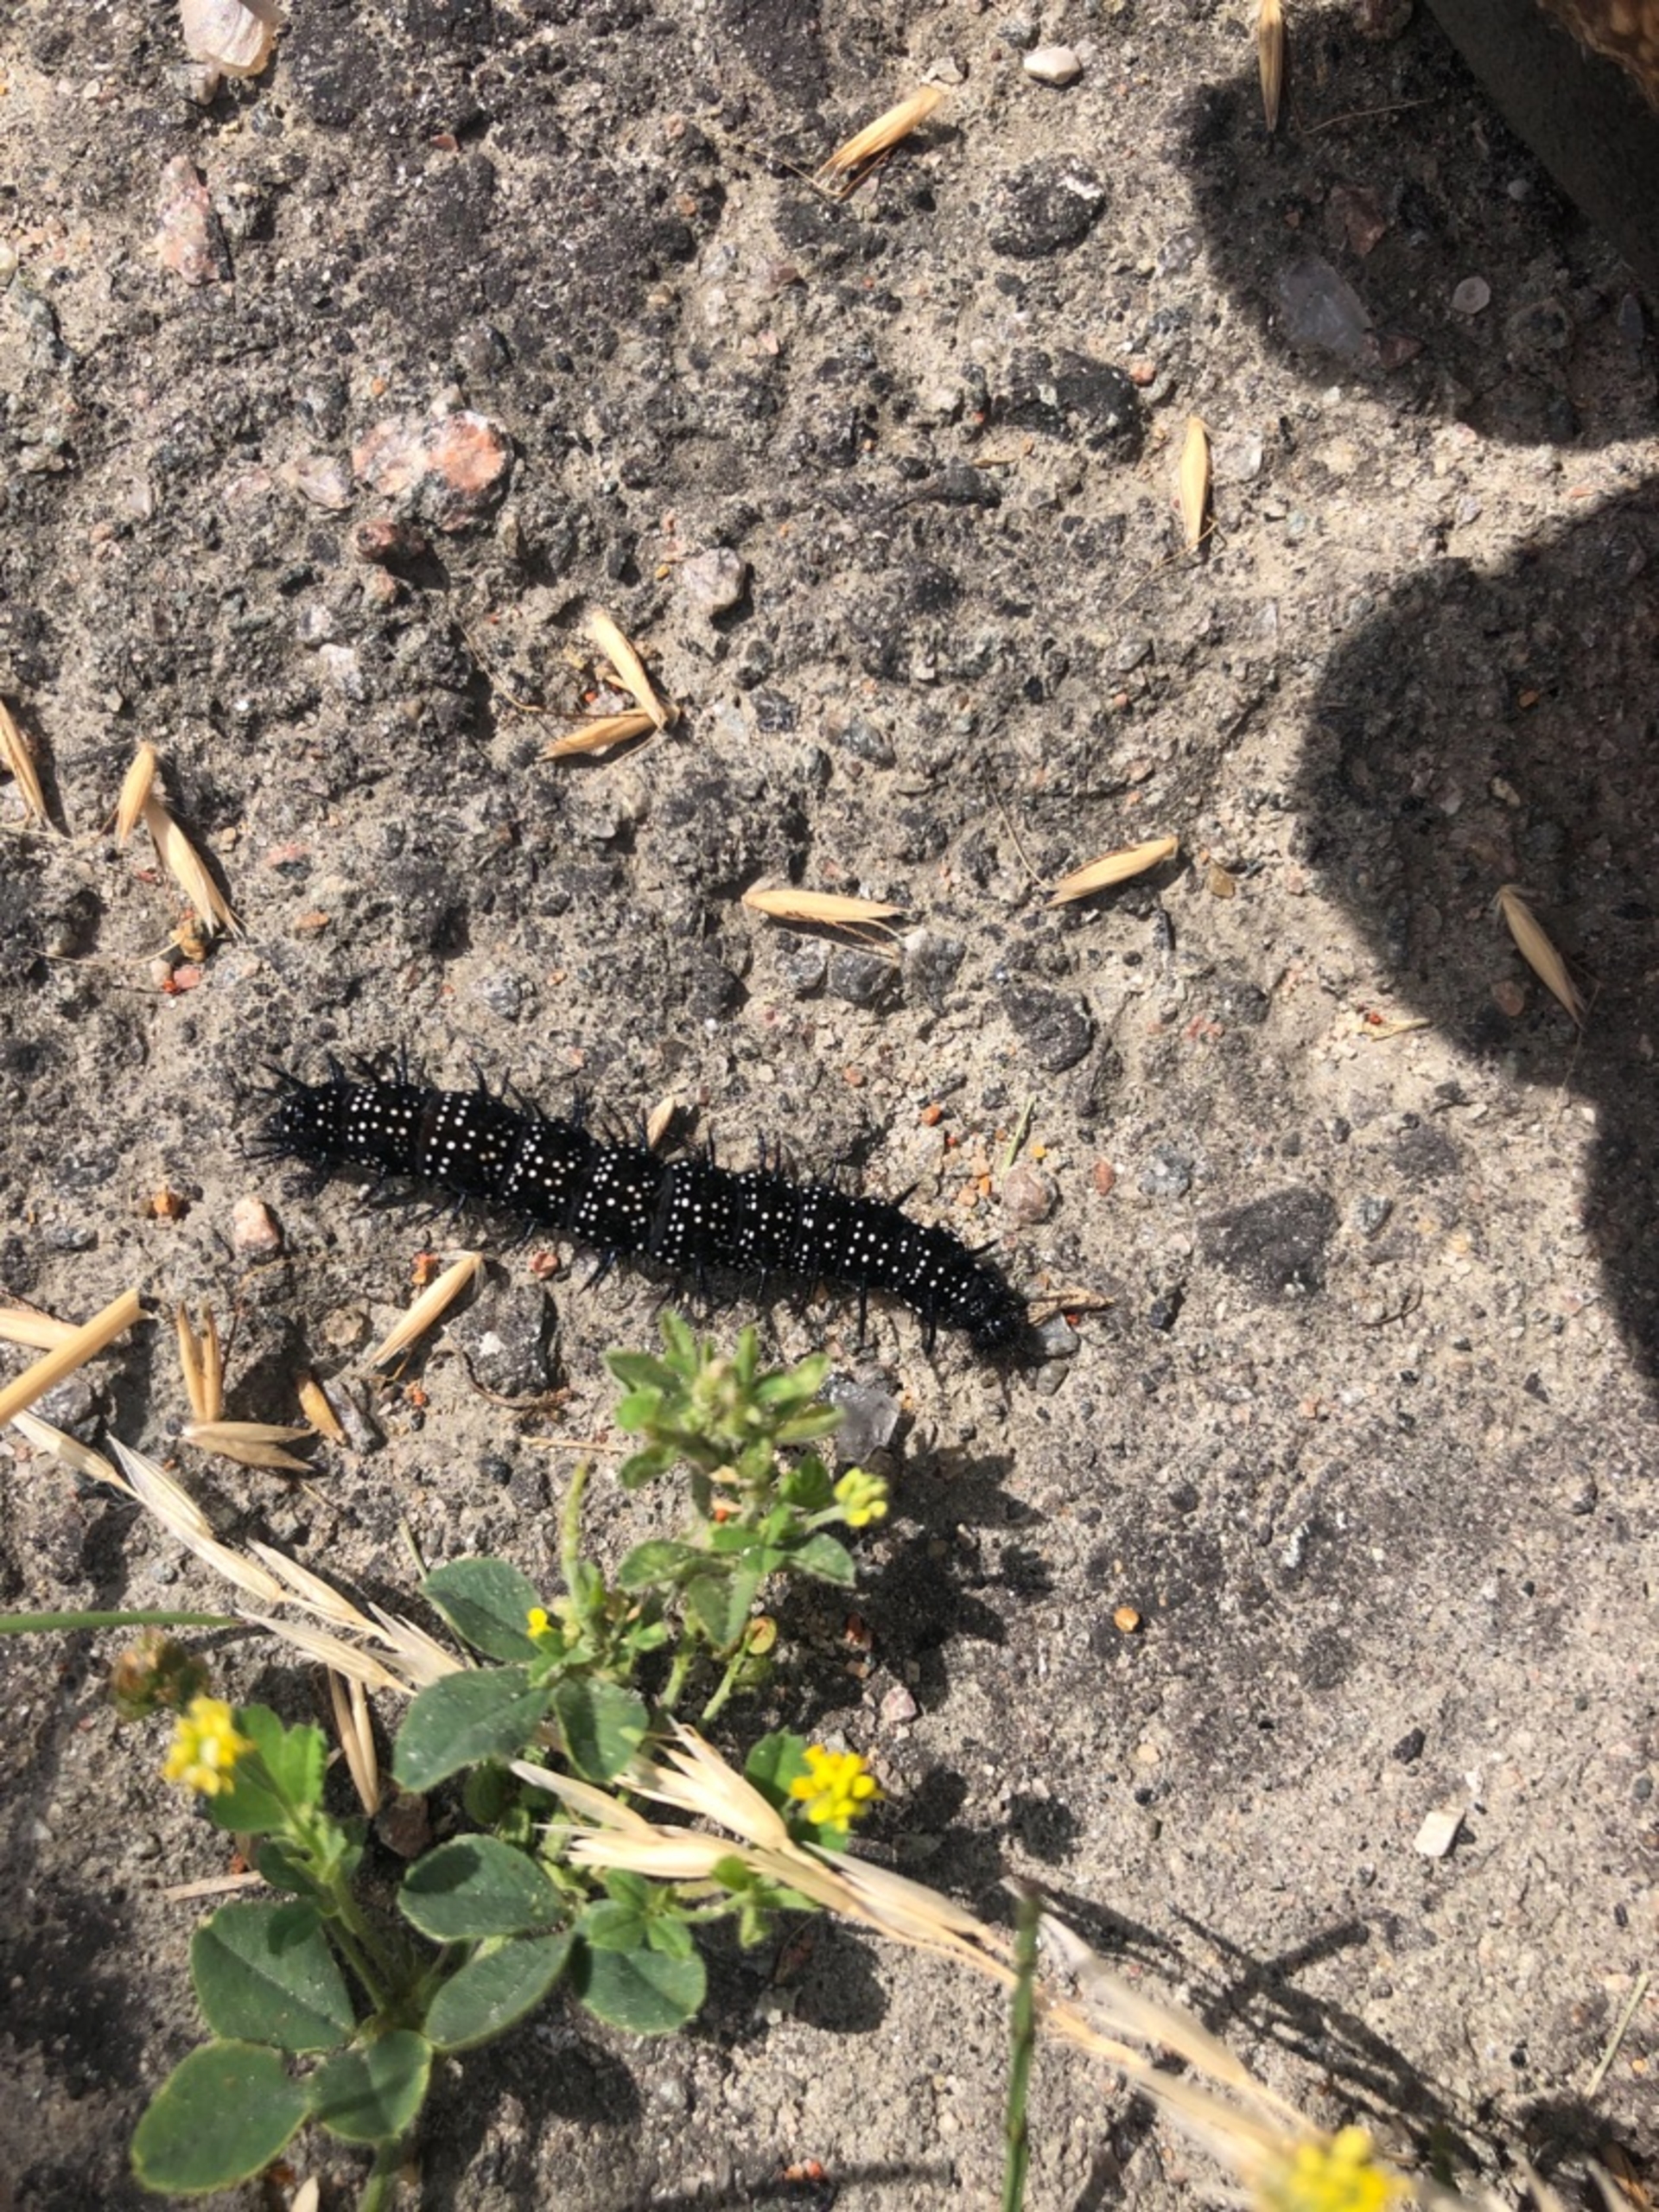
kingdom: Animalia
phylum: Arthropoda
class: Insecta
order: Lepidoptera
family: Nymphalidae
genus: Aglais
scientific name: Aglais io
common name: Dagpåfugleøje
